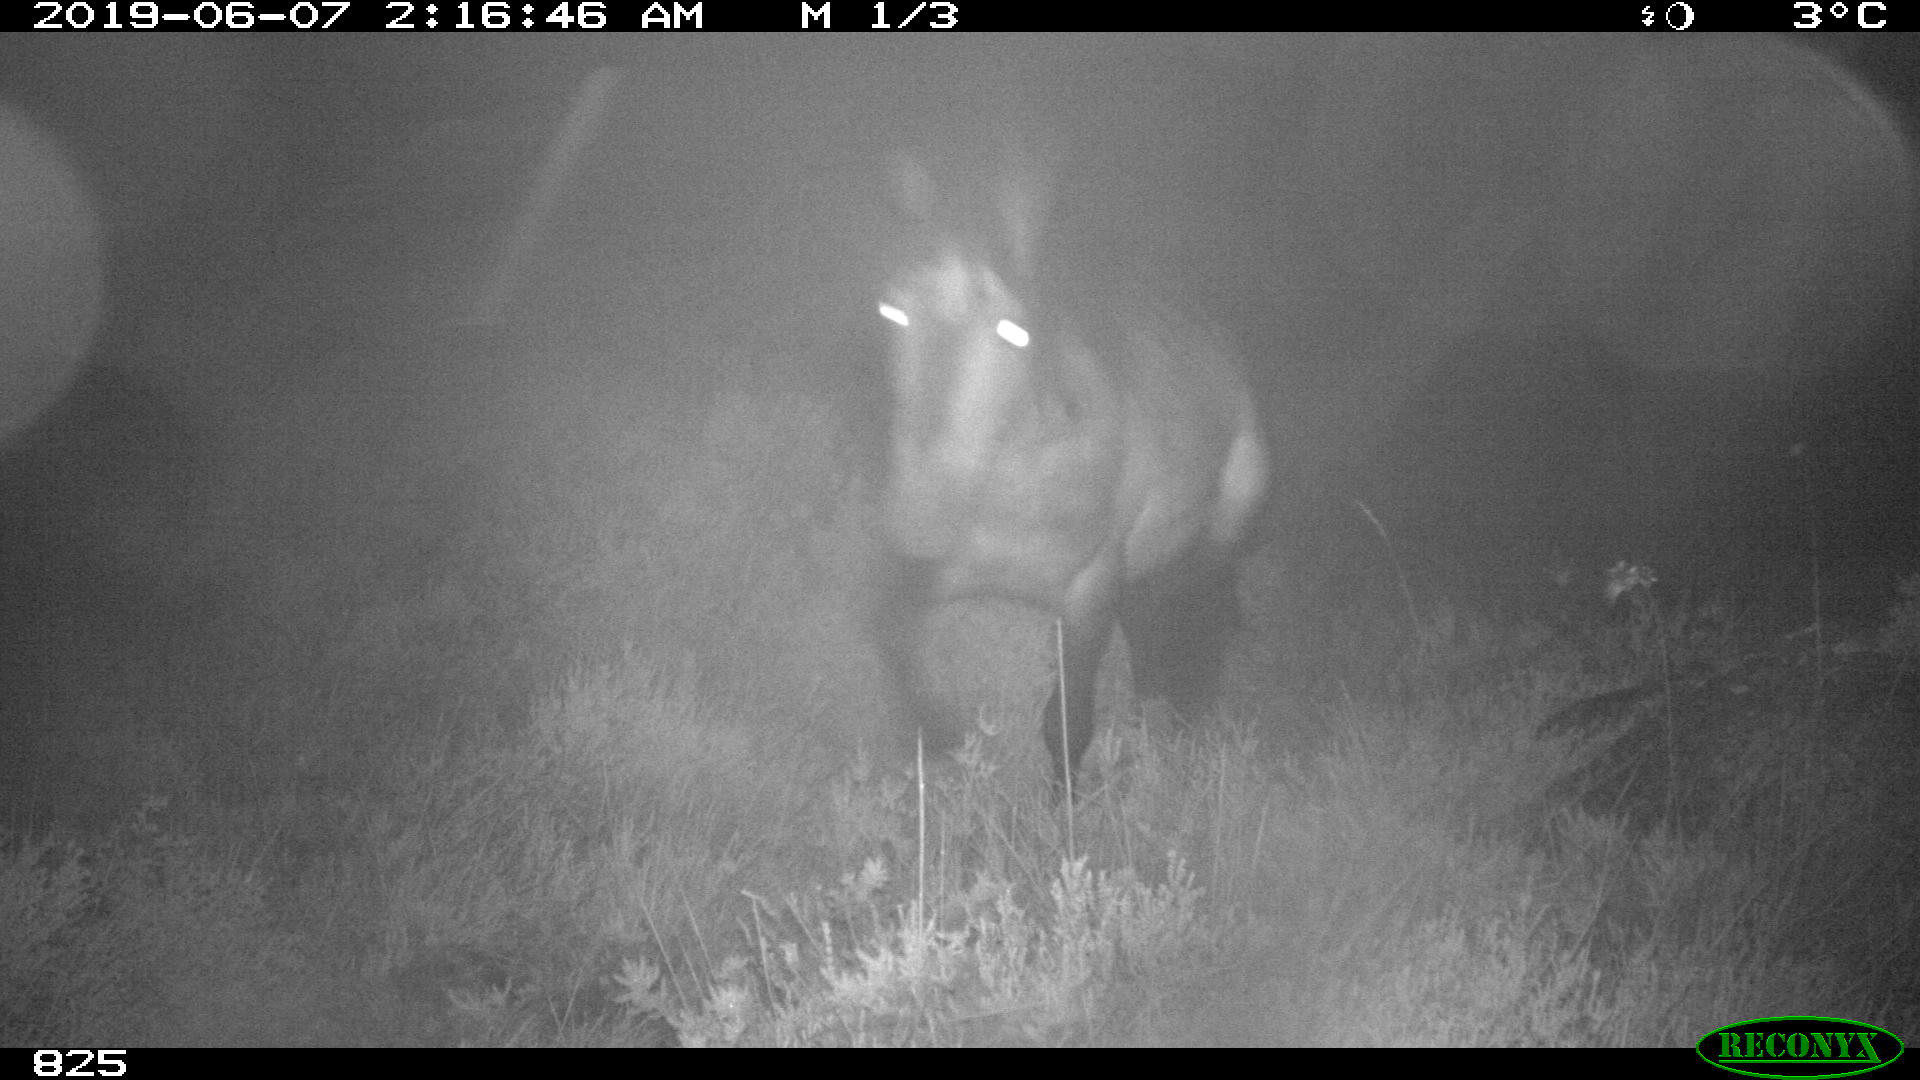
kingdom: Animalia
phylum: Chordata
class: Mammalia
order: Perissodactyla
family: Equidae
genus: Equus
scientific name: Equus caballus
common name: Horse
